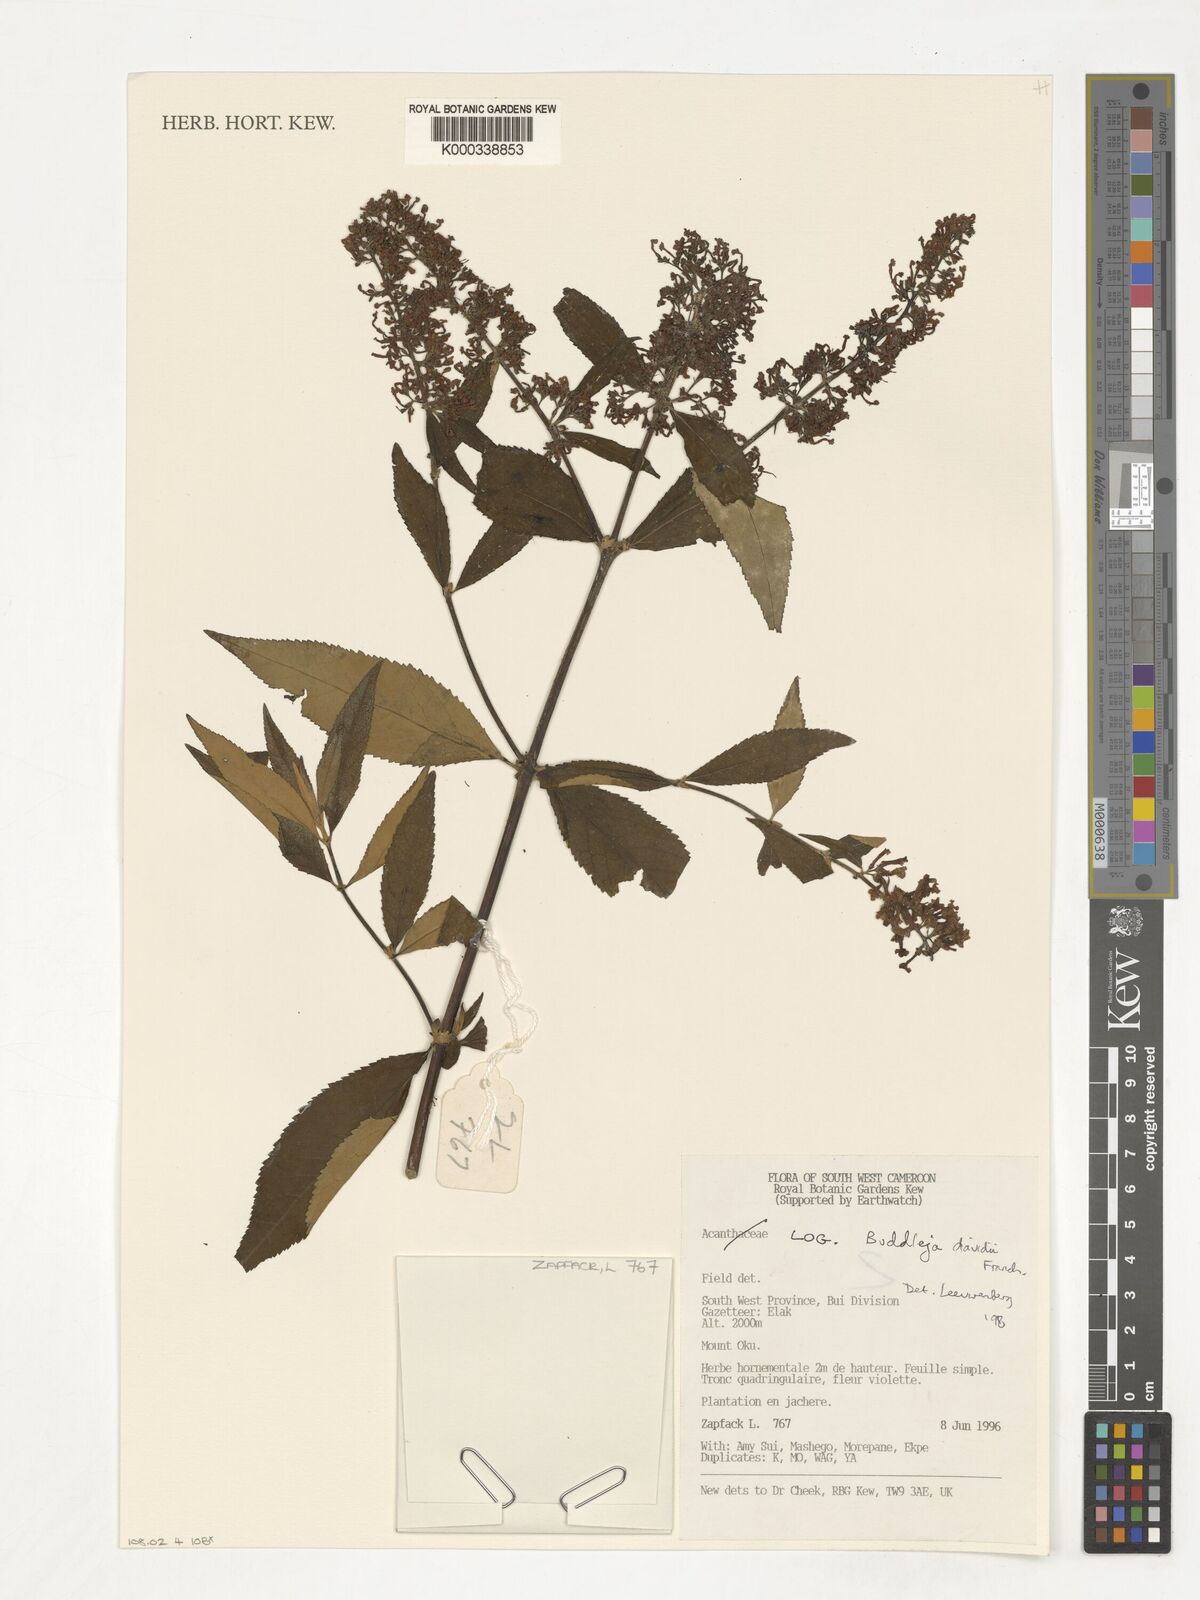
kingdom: Plantae
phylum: Tracheophyta
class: Magnoliopsida
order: Lamiales
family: Scrophulariaceae
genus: Buddleja
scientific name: Buddleja davidii
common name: Butterfly-bush
